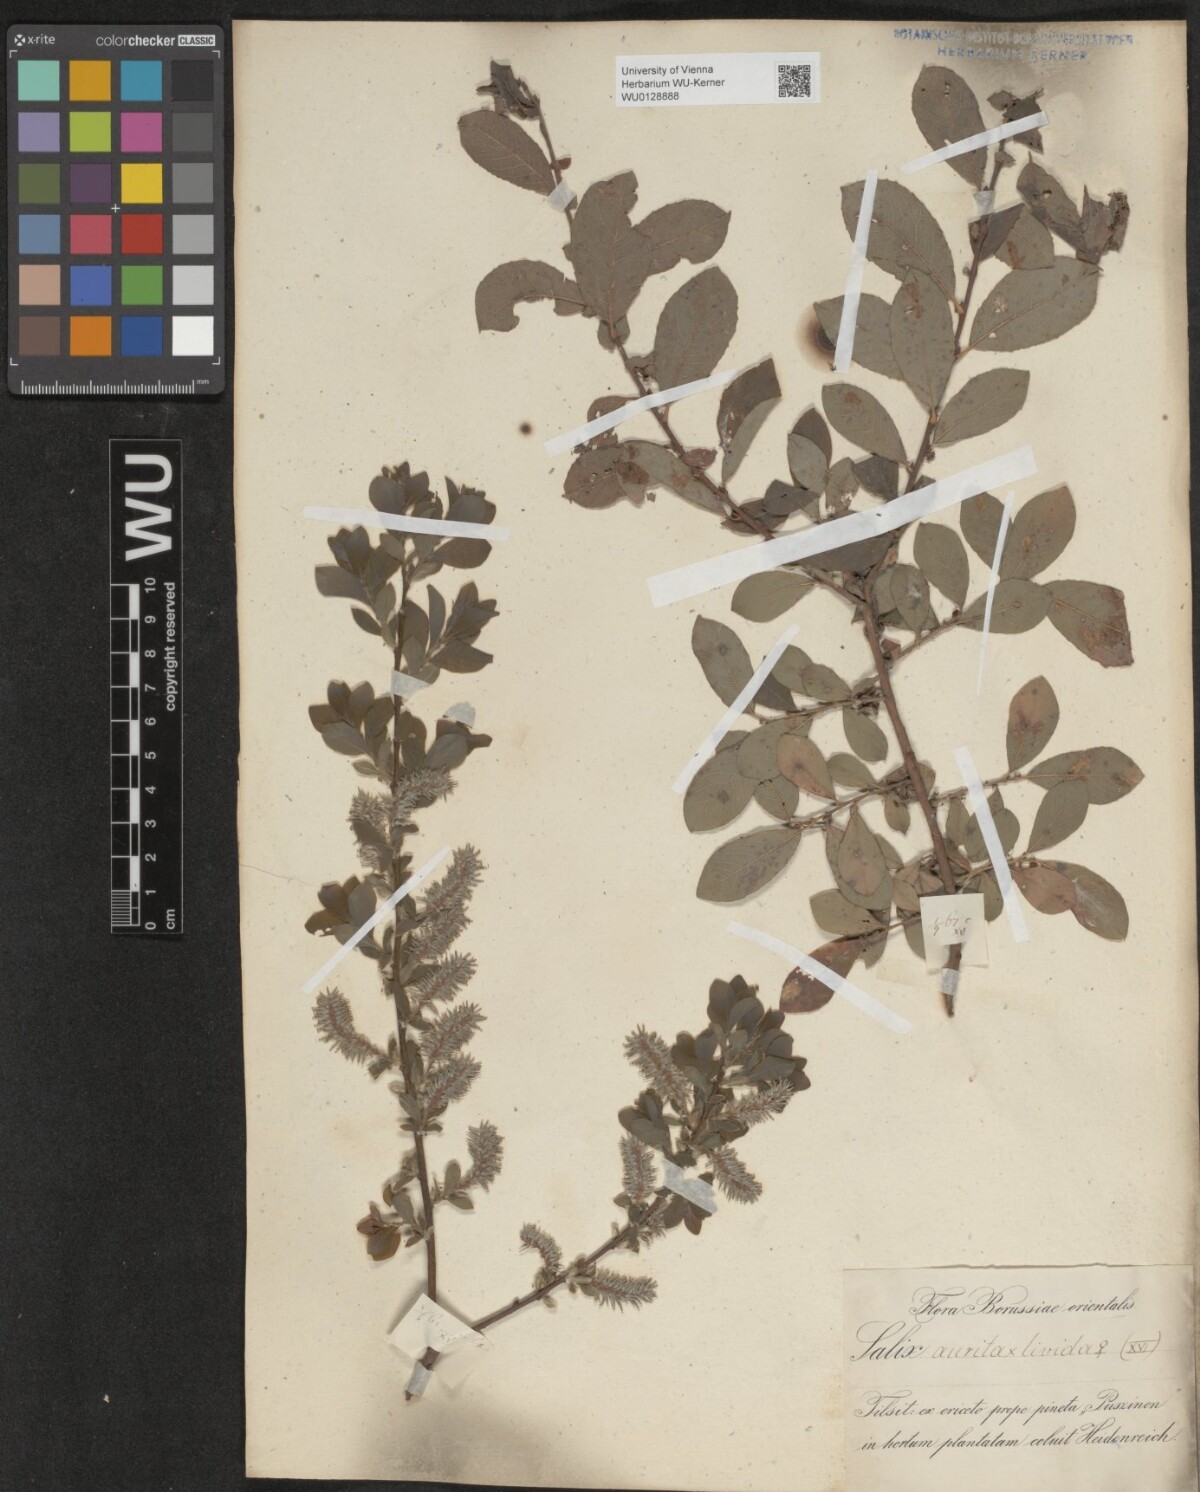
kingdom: Plantae
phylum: Tracheophyta
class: Magnoliopsida
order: Malpighiales
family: Salicaceae
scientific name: Salicaceae
